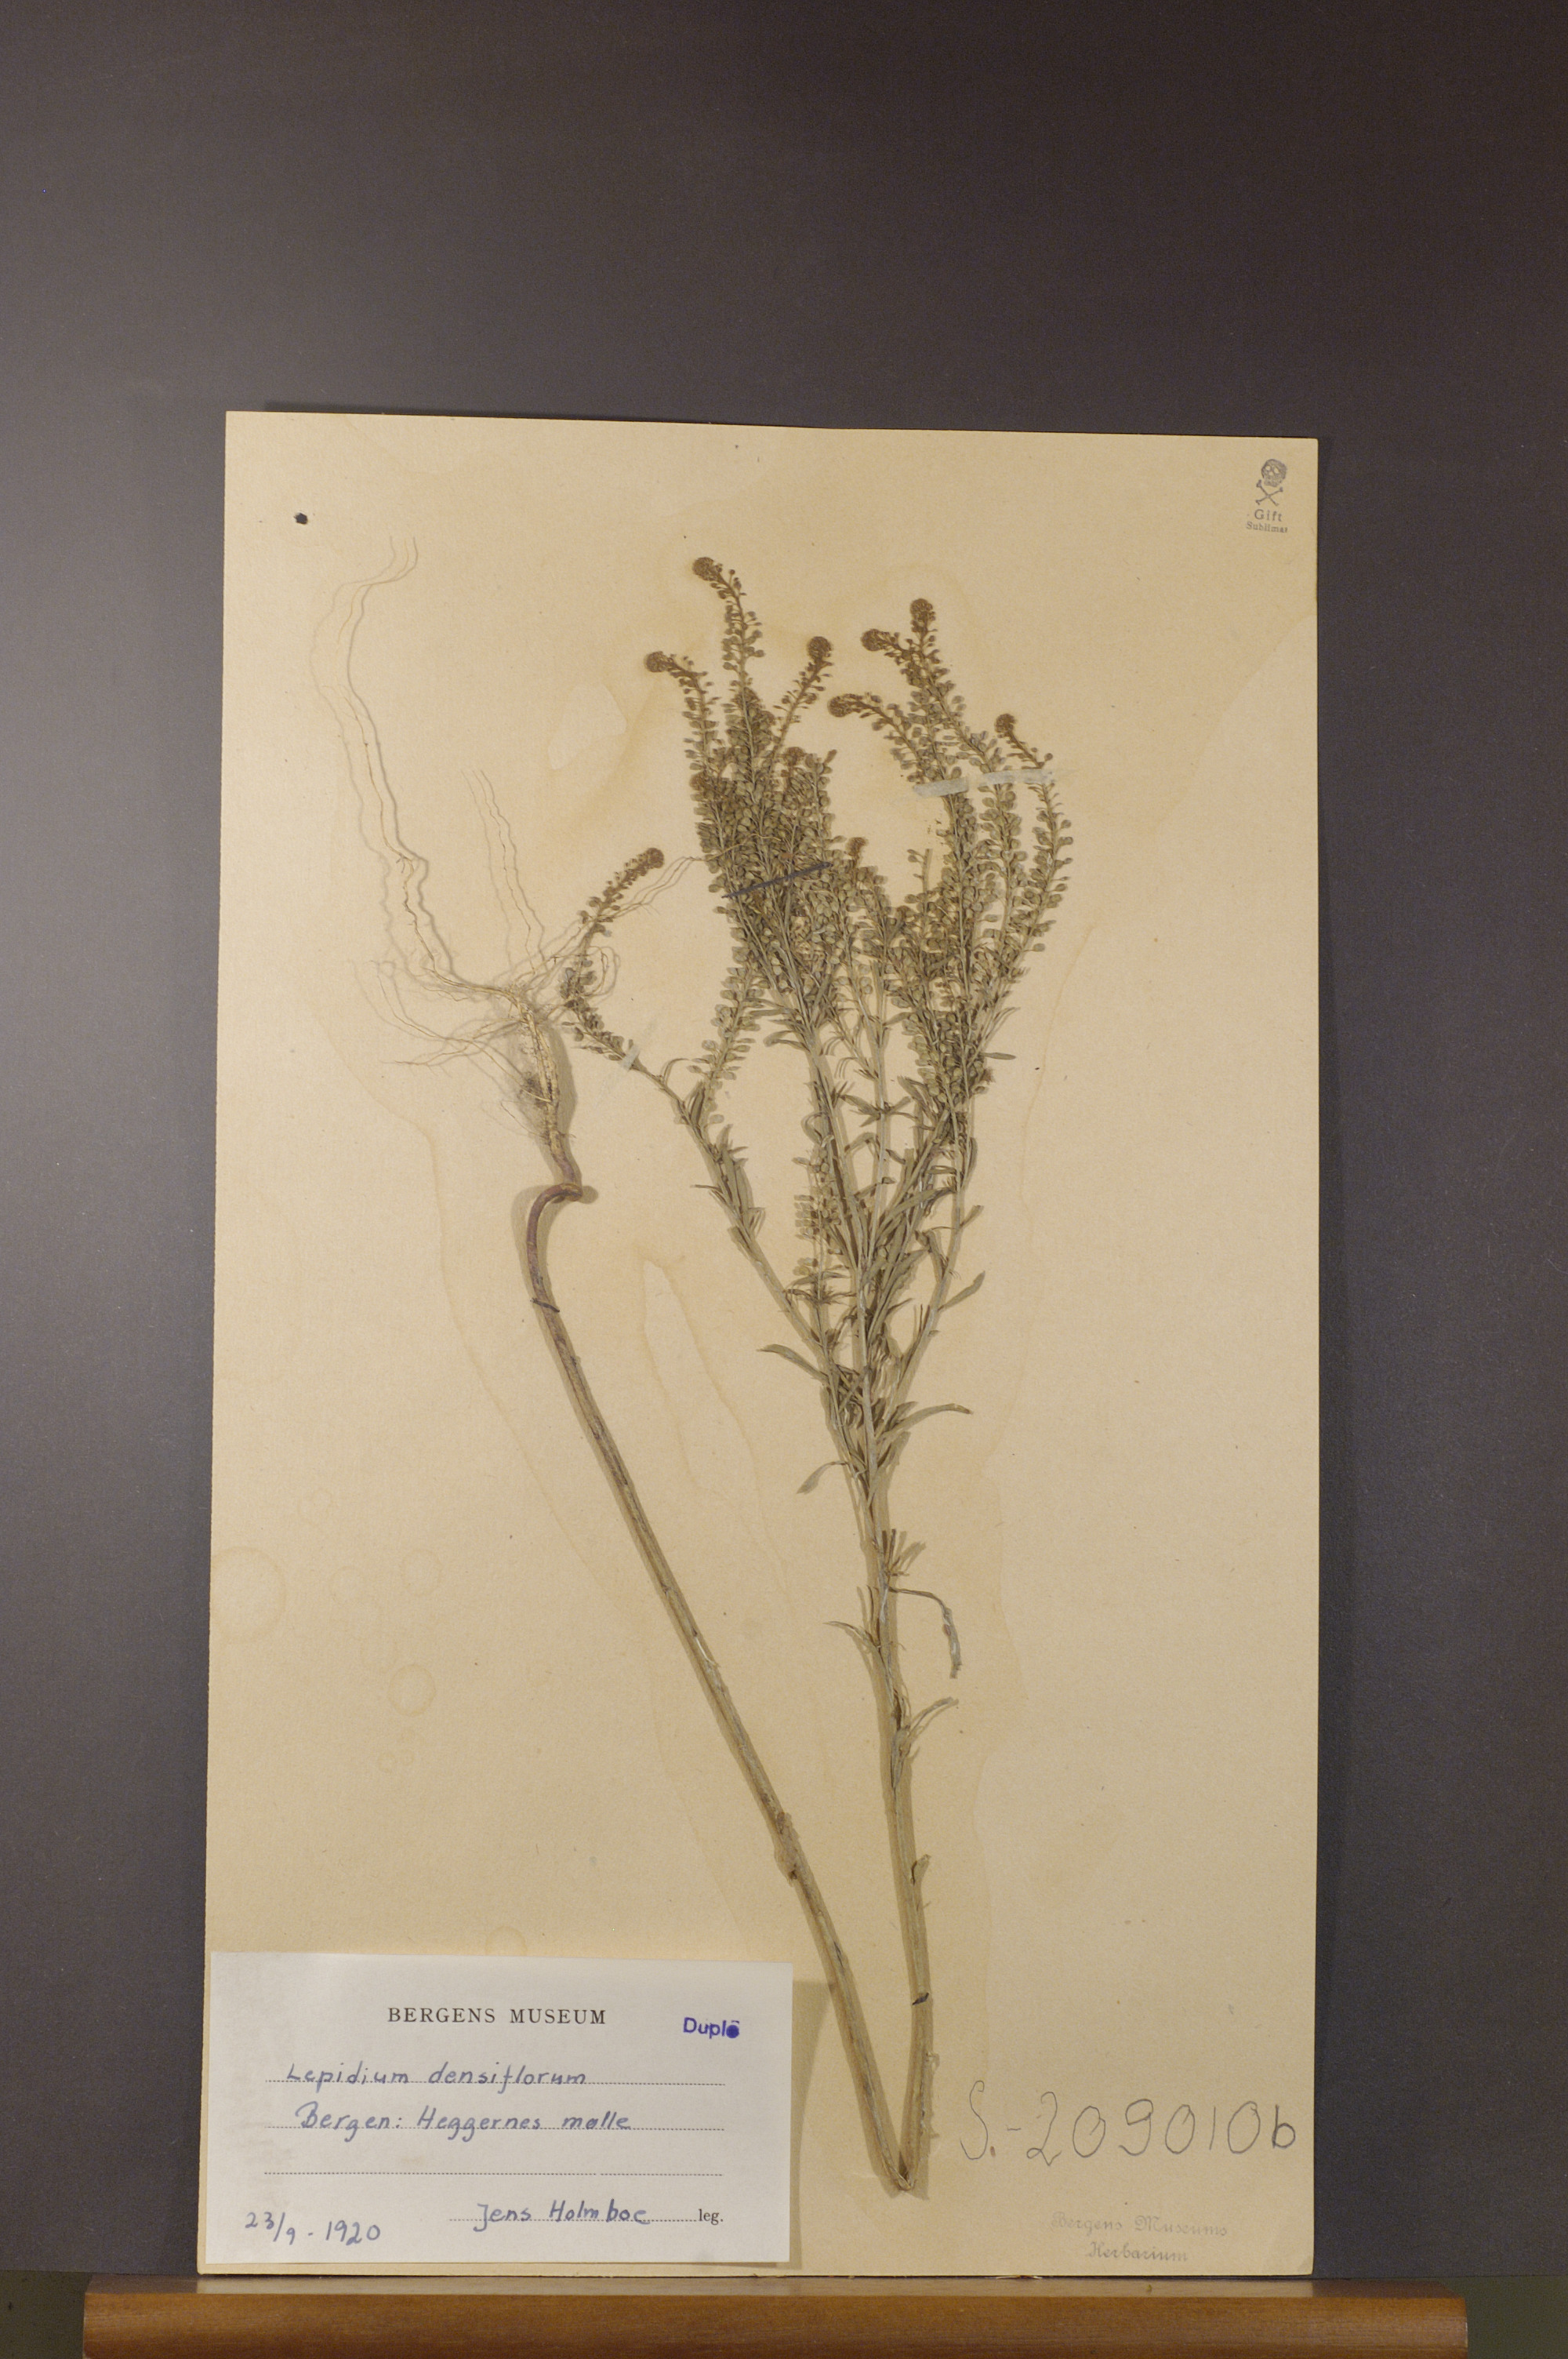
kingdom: Plantae
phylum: Tracheophyta
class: Magnoliopsida
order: Brassicales
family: Brassicaceae
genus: Lepidium
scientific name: Lepidium densiflorum
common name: Miner's pepperwort
